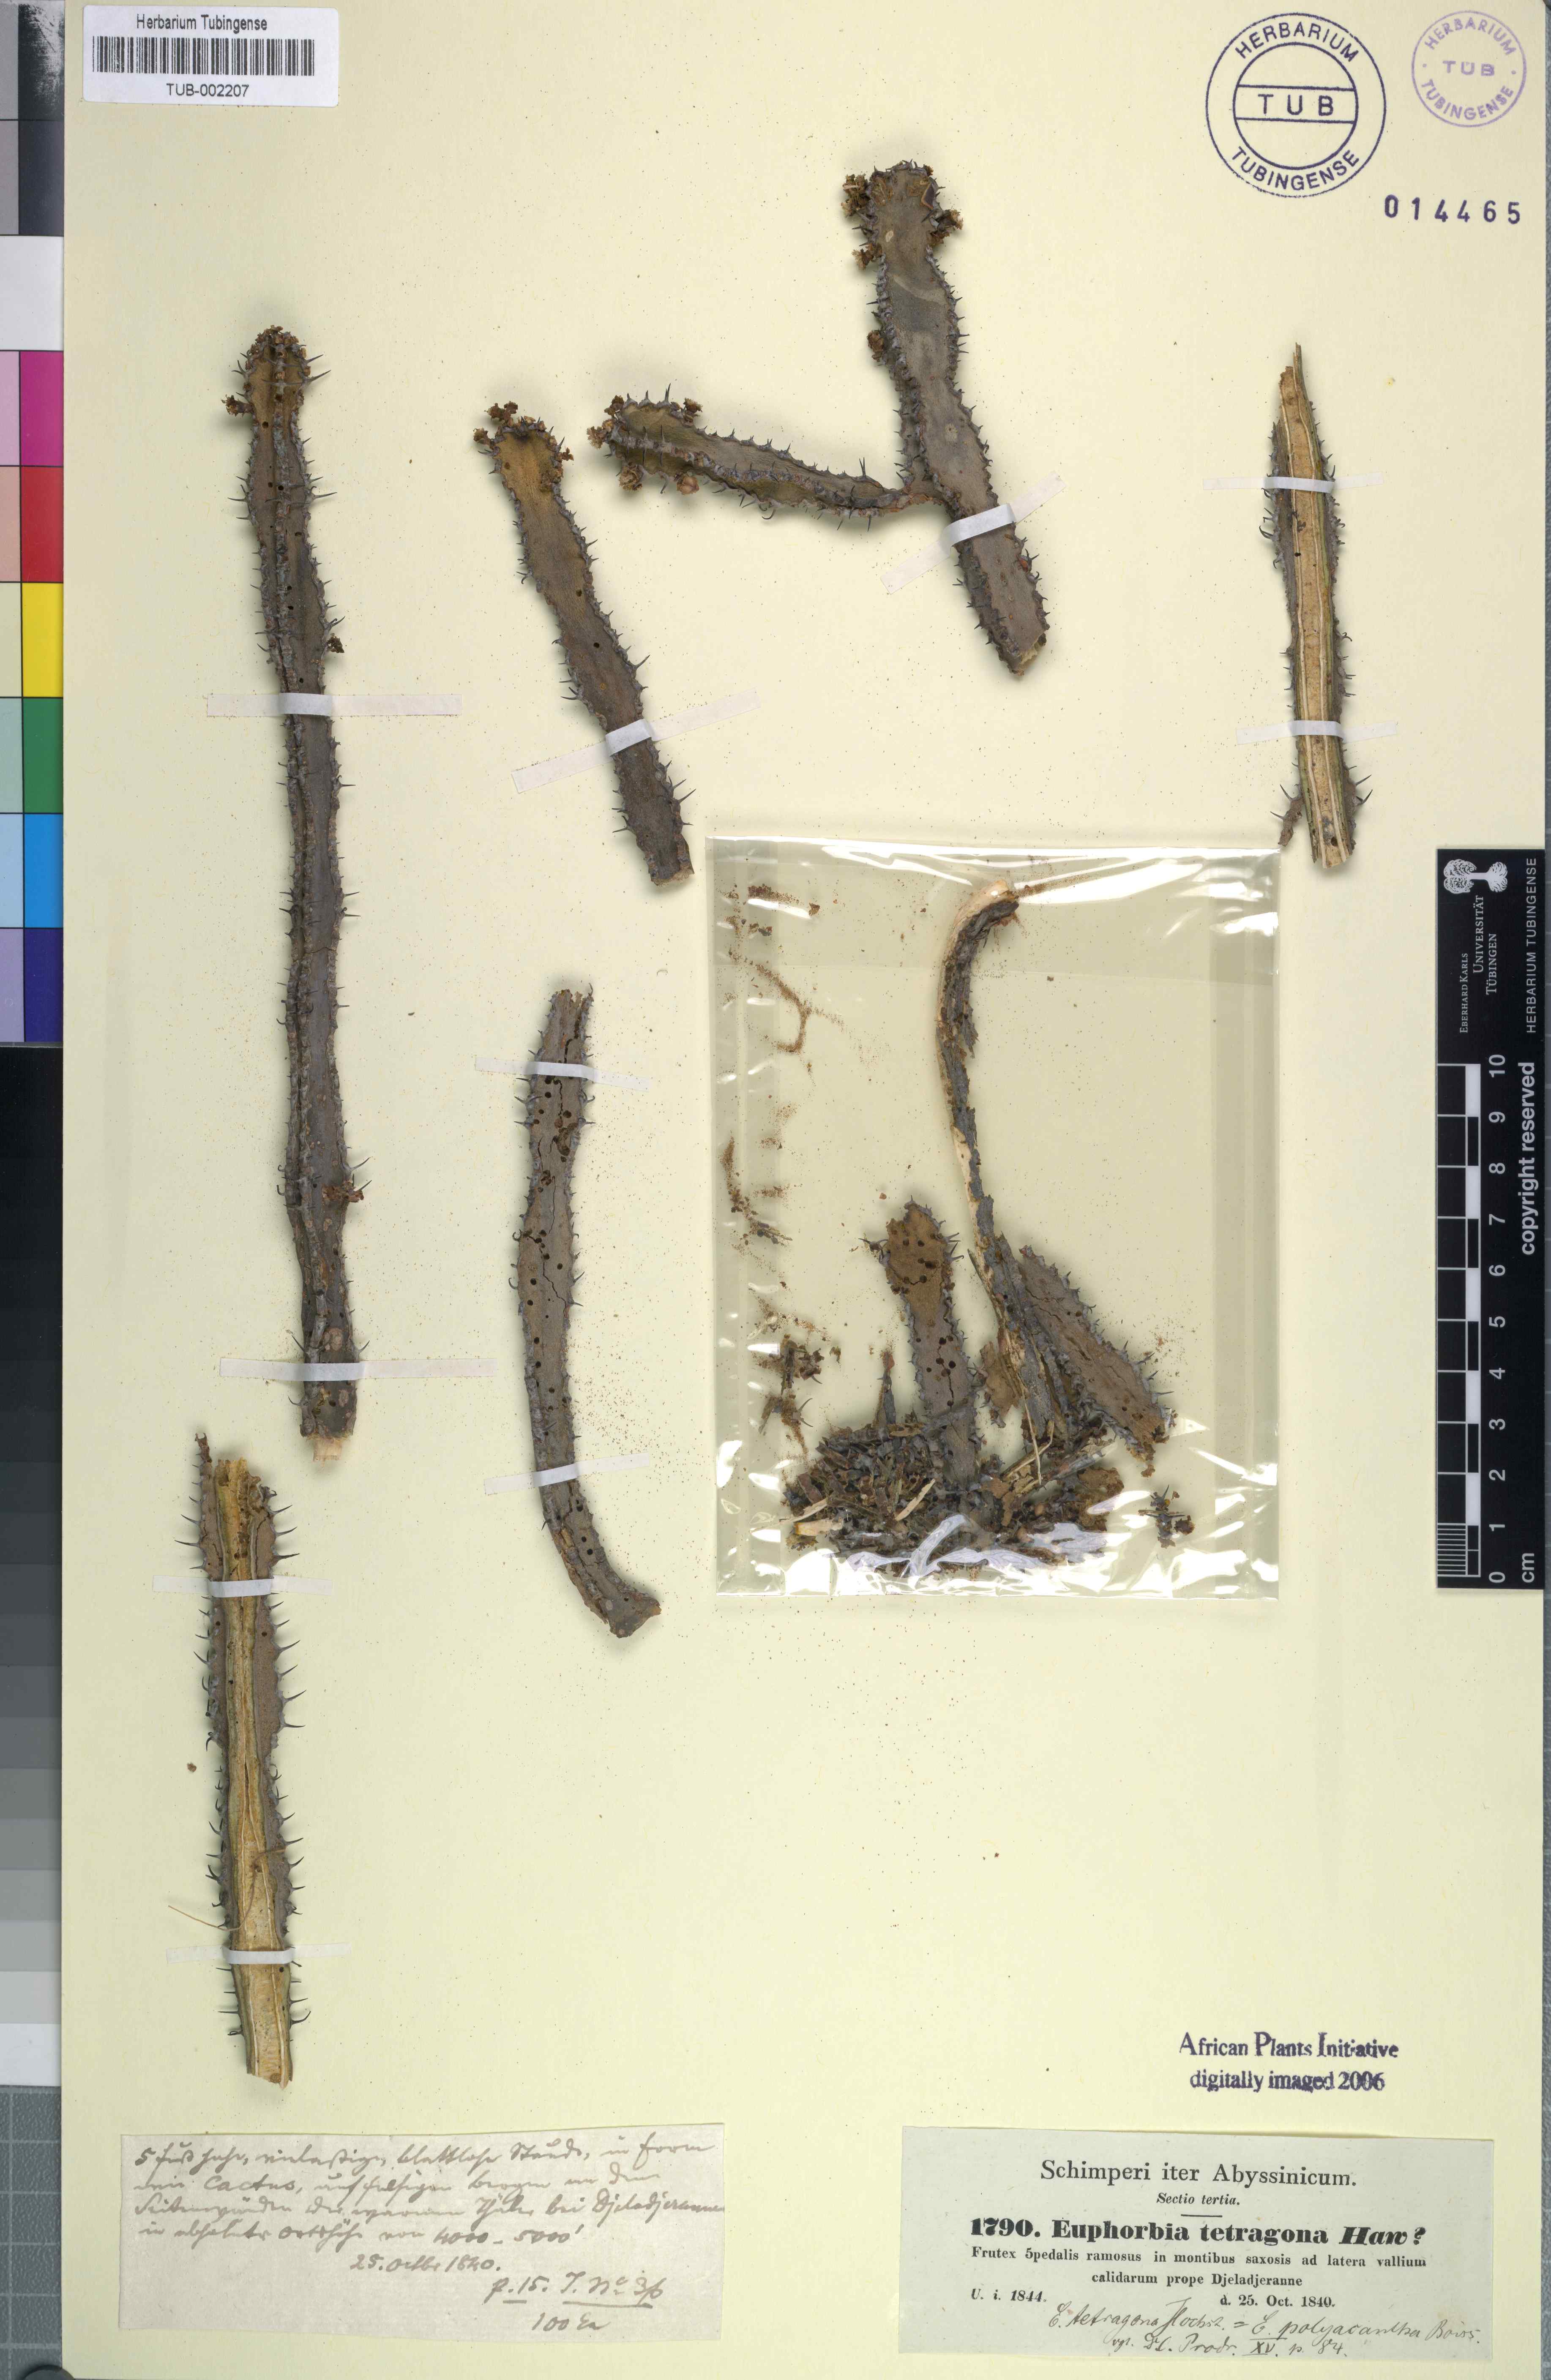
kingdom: Plantae
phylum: Tracheophyta
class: Magnoliopsida
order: Malpighiales
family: Euphorbiaceae
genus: Euphorbia
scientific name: Euphorbia tetragona
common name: Honey euphorbia
